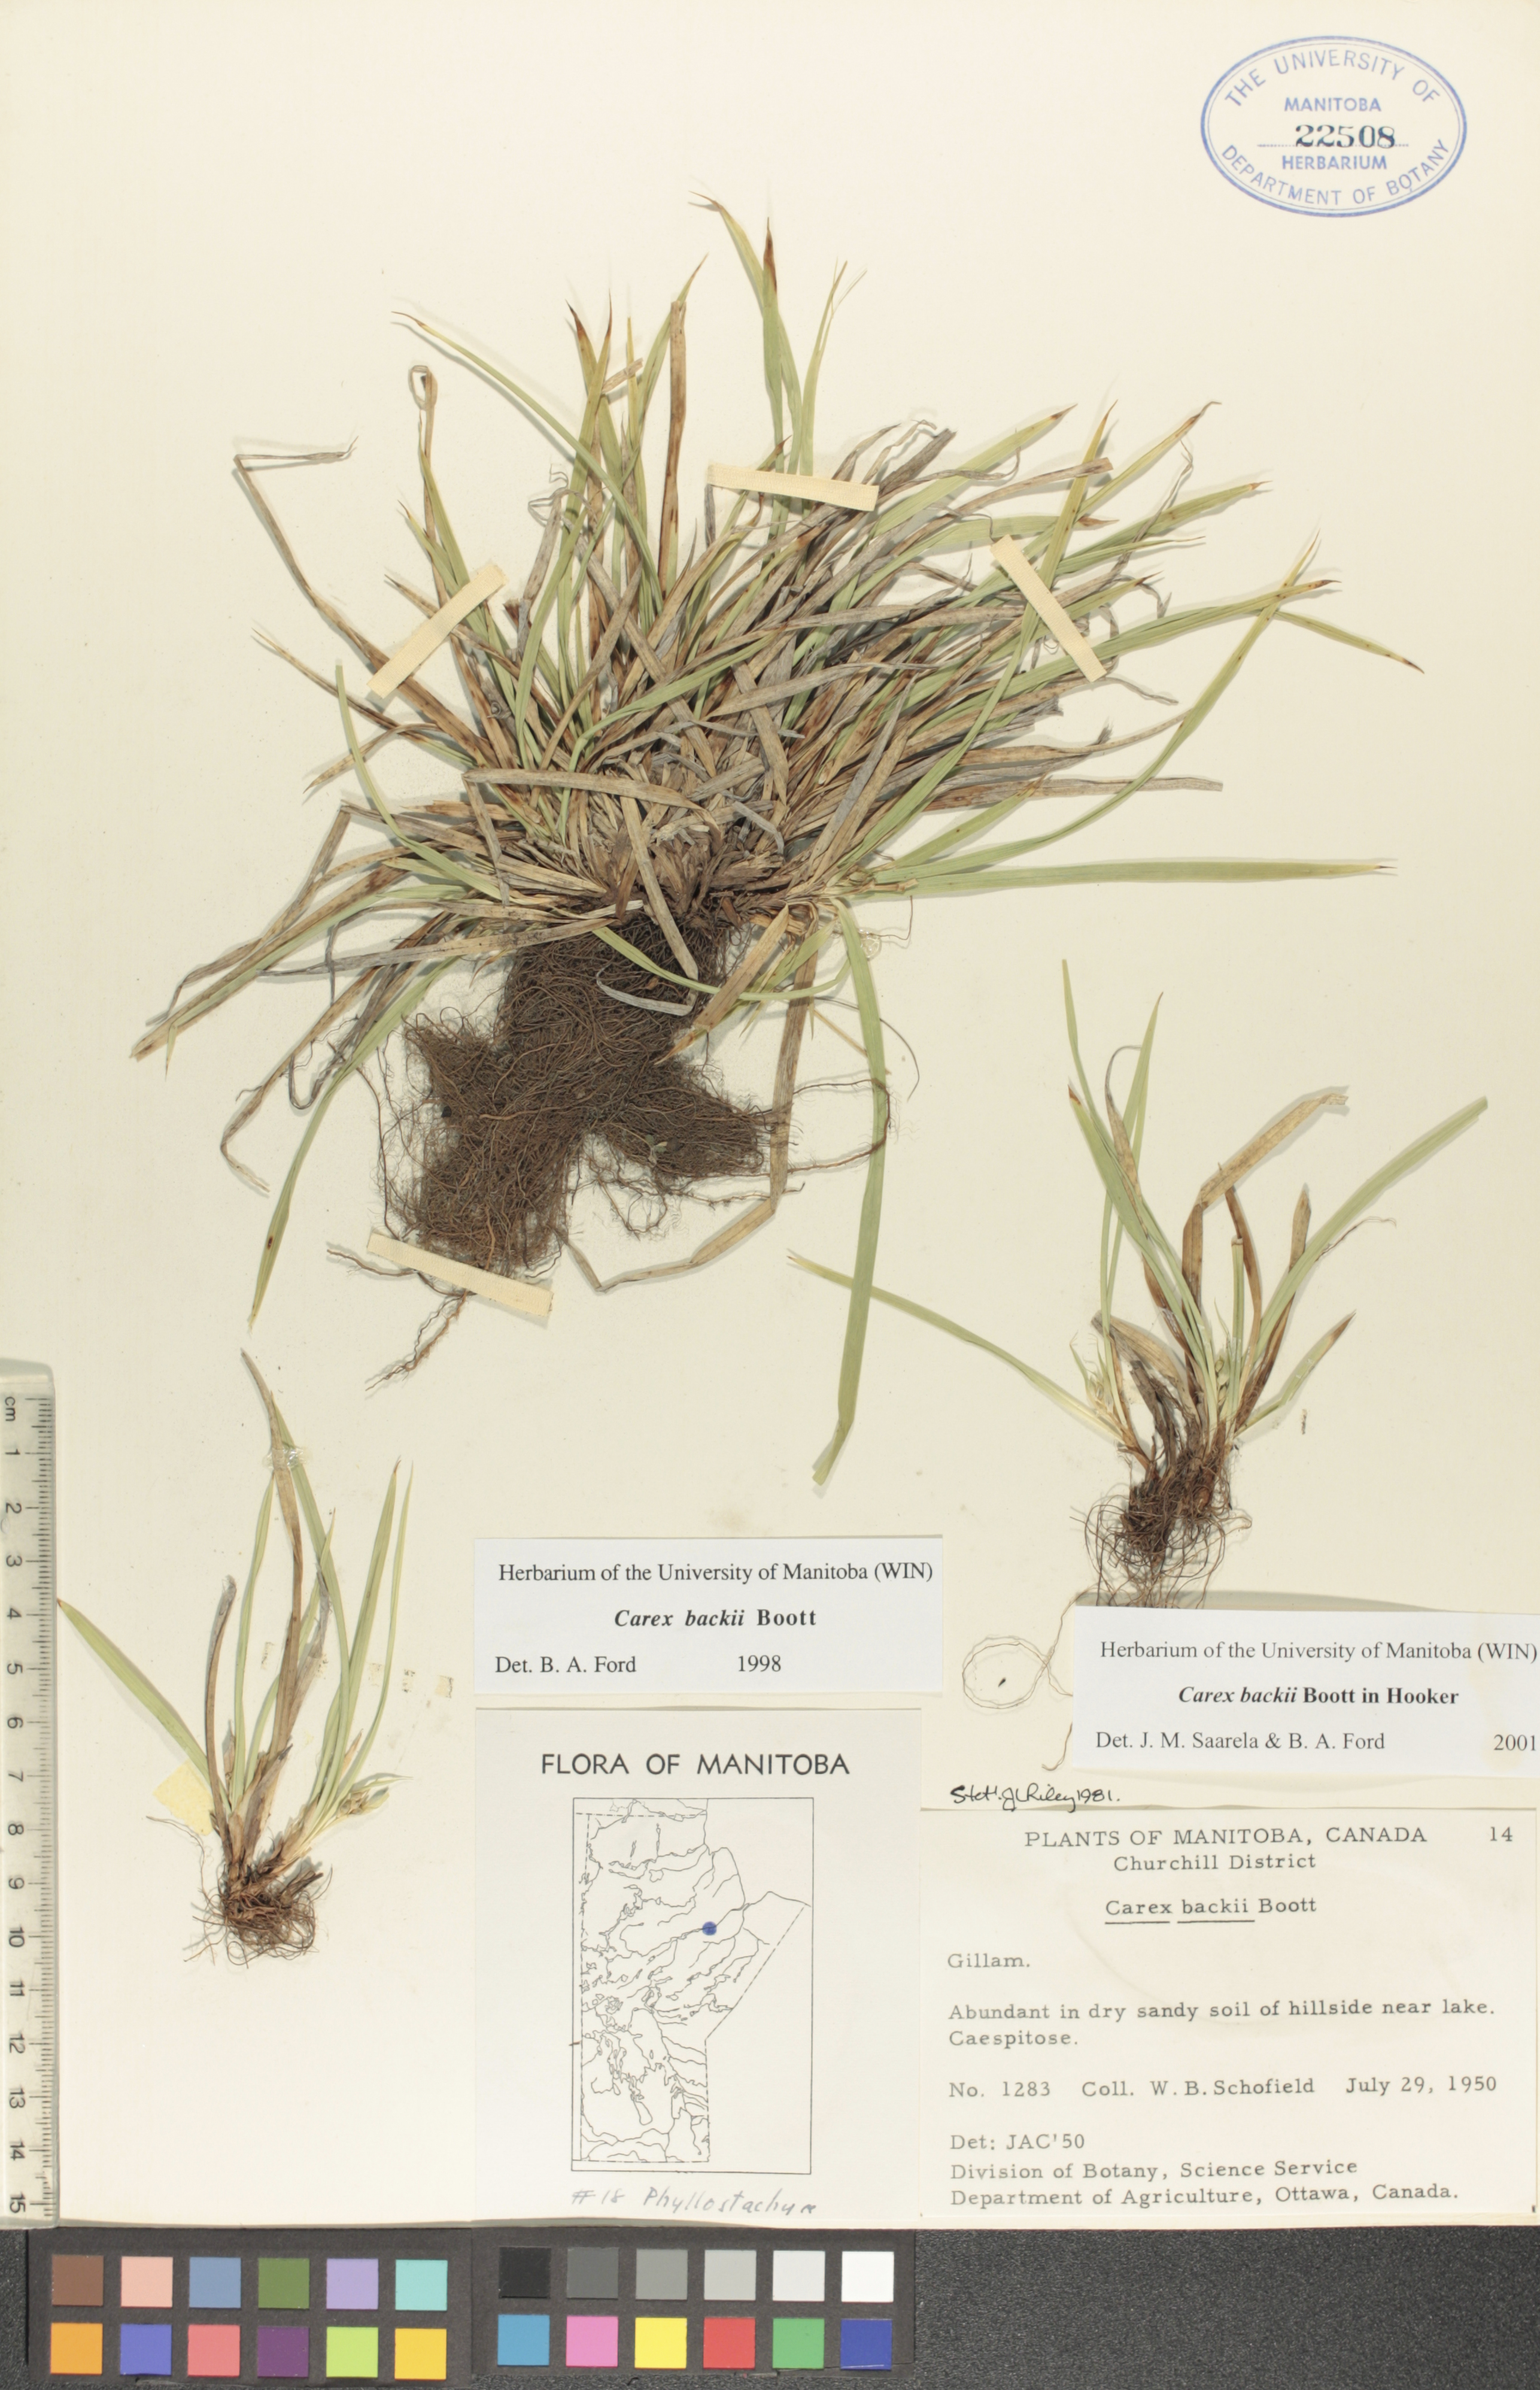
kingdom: Plantae
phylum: Tracheophyta
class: Liliopsida
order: Poales
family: Cyperaceae
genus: Carex
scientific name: Carex backii
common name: Back's sedge
